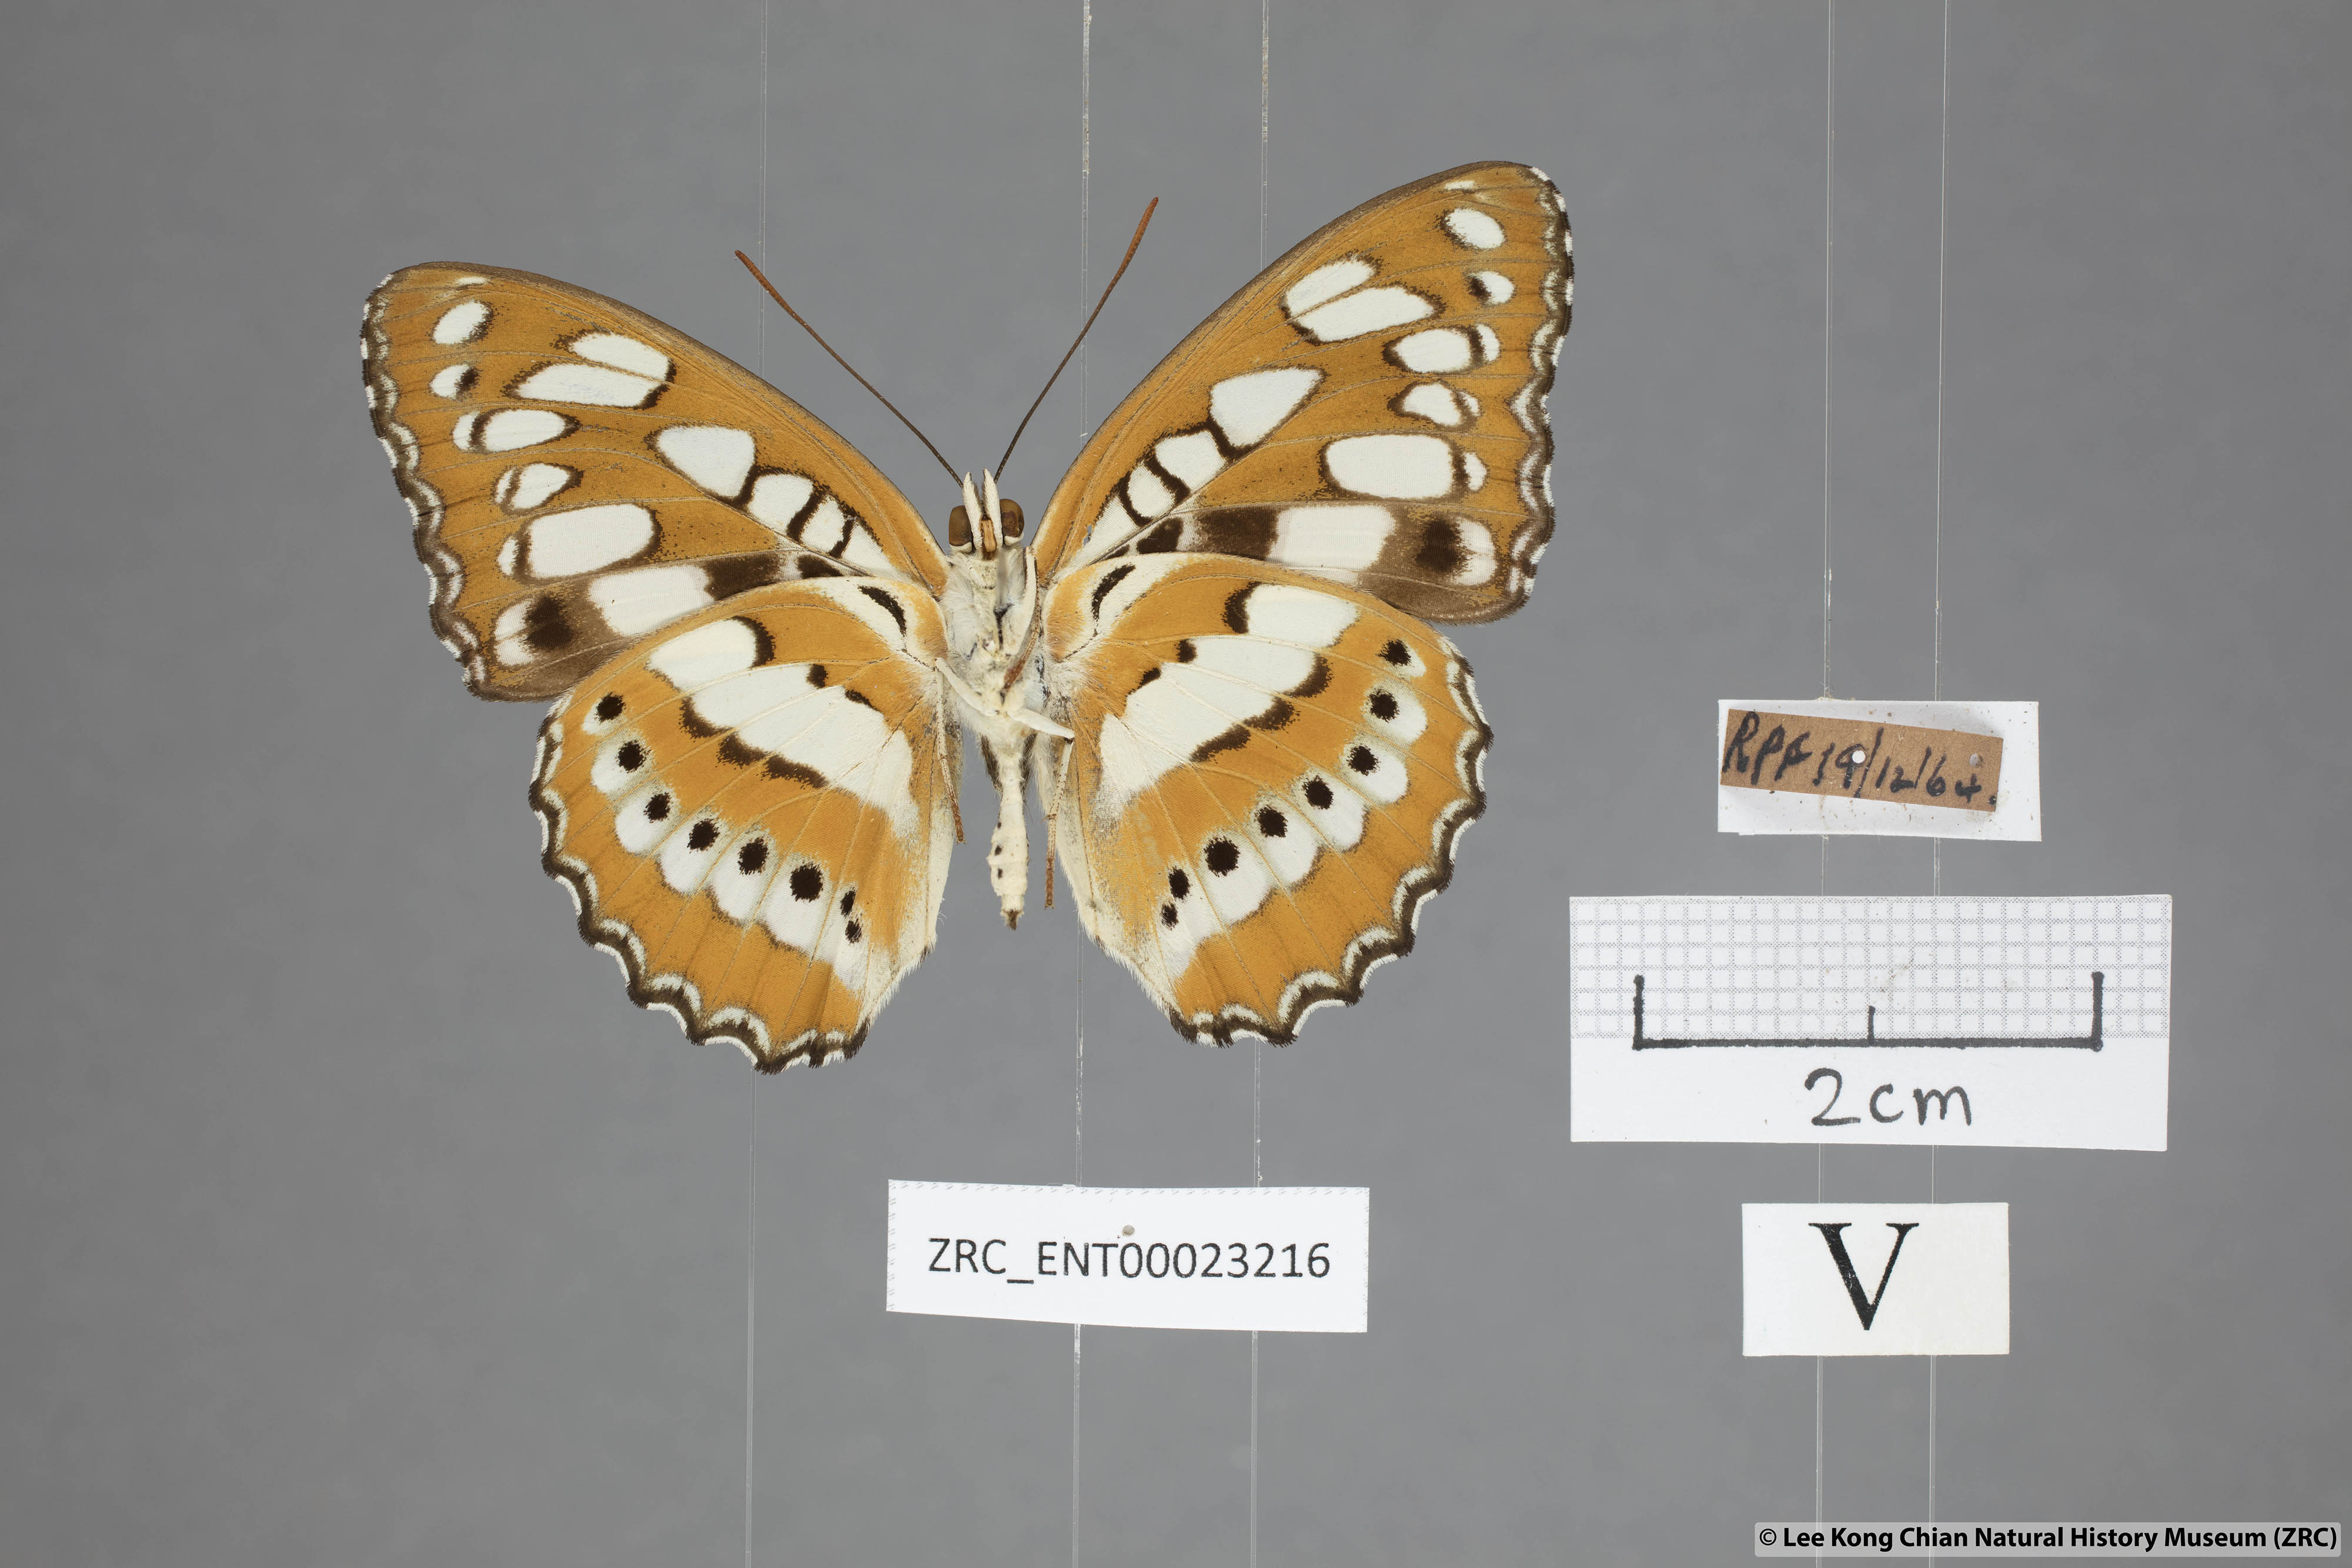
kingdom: Animalia
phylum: Arthropoda
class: Insecta
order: Lepidoptera
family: Nymphalidae
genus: Parathyma
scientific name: Parathyma perius
